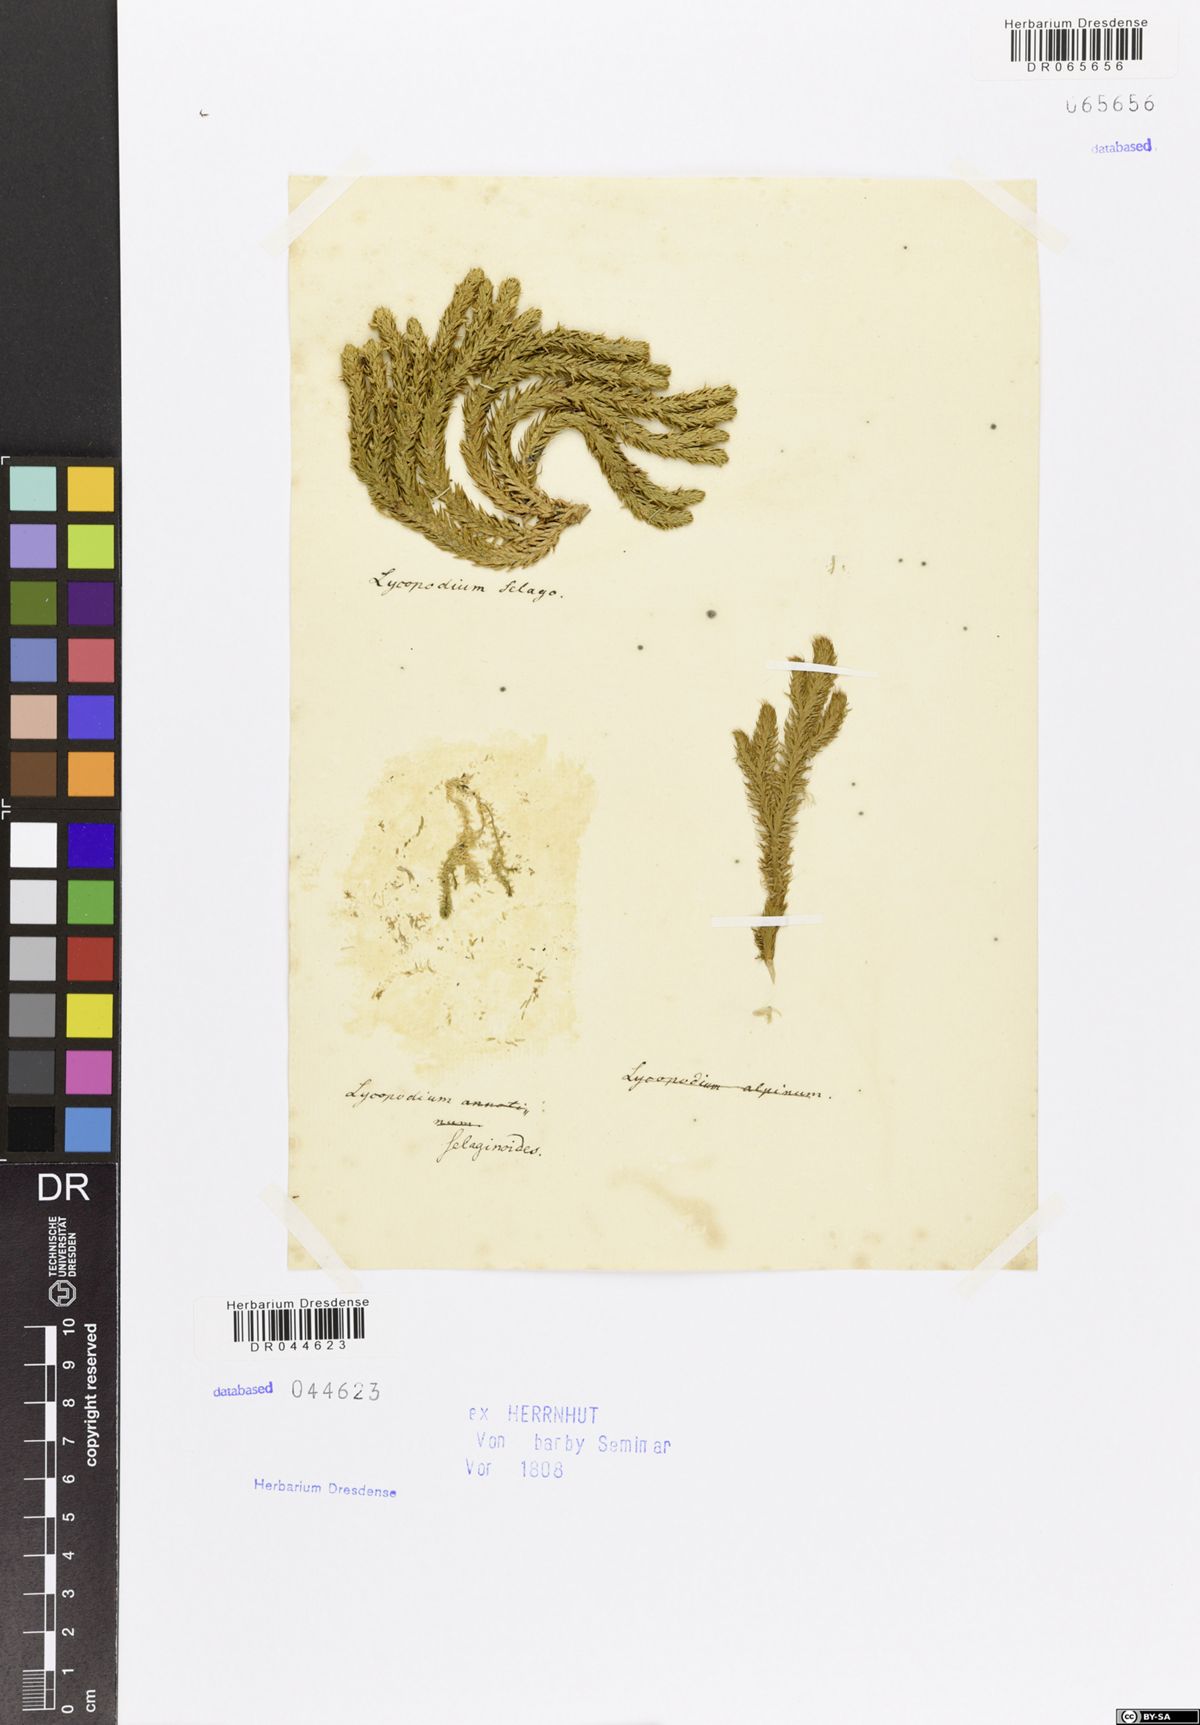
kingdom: Plantae
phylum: Tracheophyta
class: Lycopodiopsida
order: Selaginellales
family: Selaginellaceae
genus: Selaginella
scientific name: Selaginella selaginoides
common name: Prickly mountain-moss
